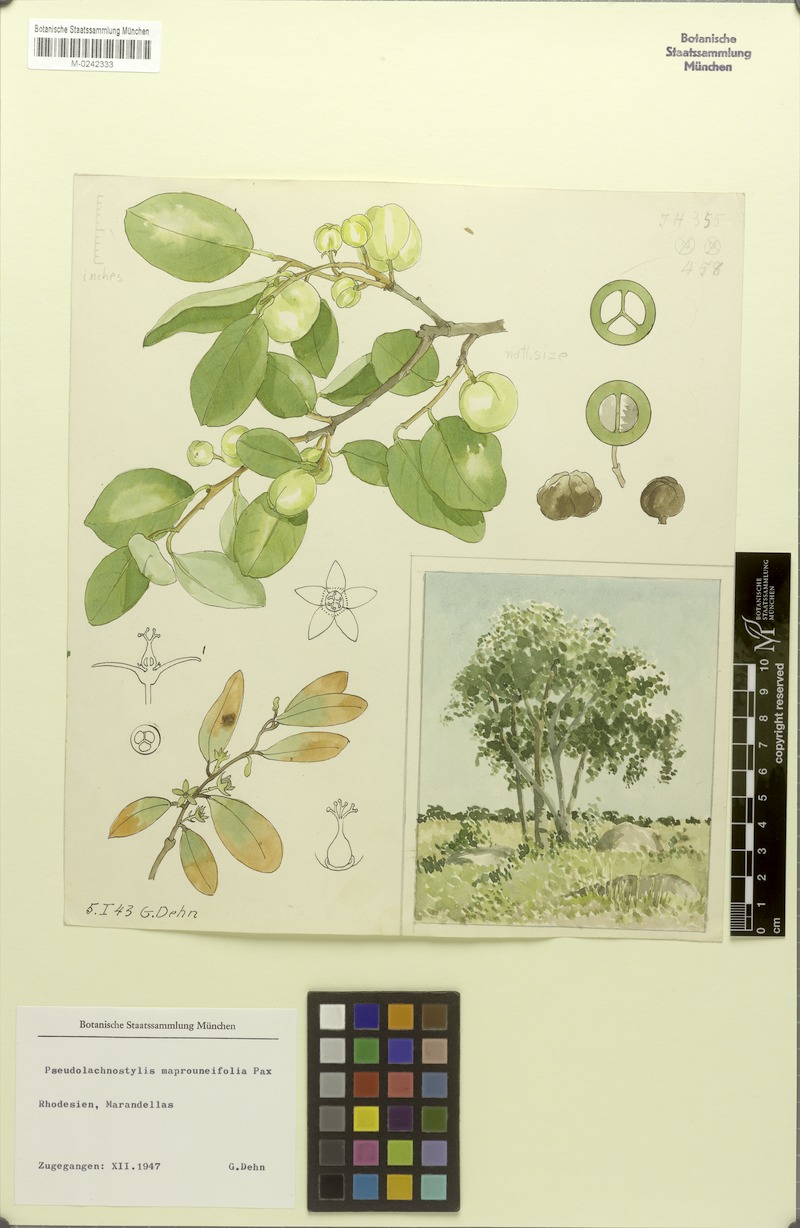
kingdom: Plantae
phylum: Tracheophyta
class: Magnoliopsida
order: Malpighiales
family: Phyllanthaceae
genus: Pseudolachnostylis
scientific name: Pseudolachnostylis maprouneifolia
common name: Kudu berry
